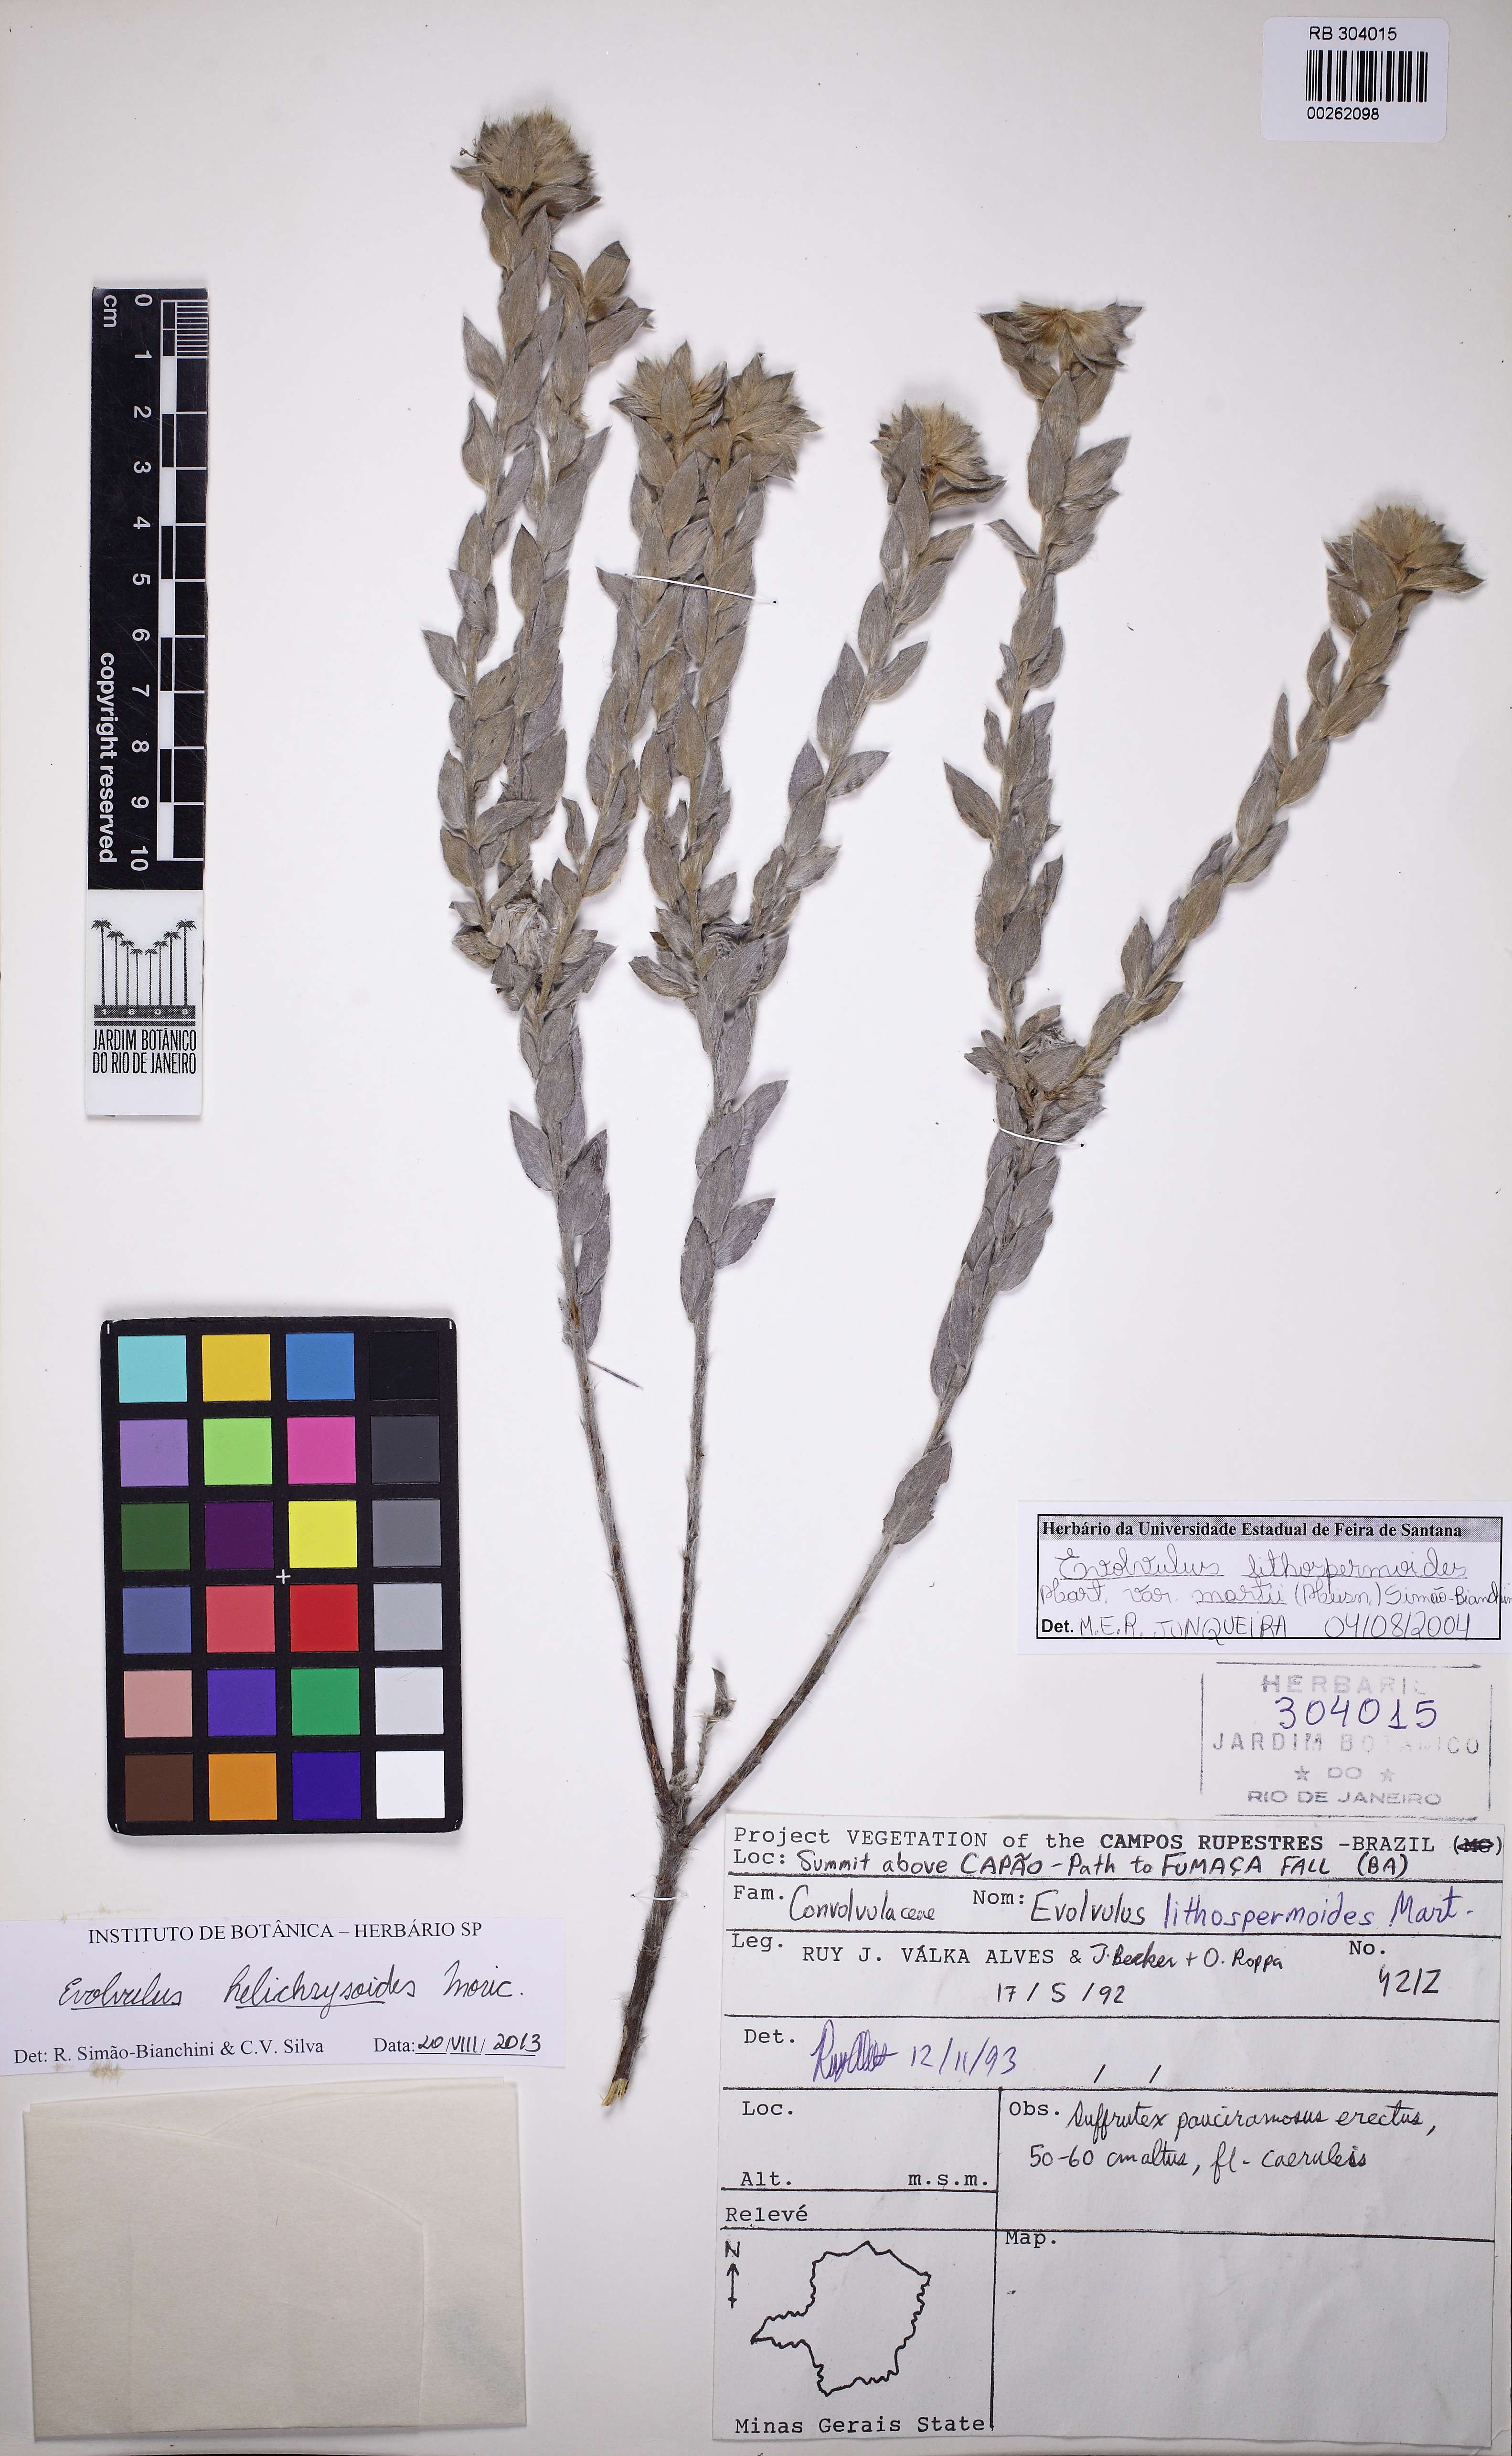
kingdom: Plantae
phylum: Tracheophyta
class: Magnoliopsida
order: Solanales
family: Convolvulaceae
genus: Evolvulus
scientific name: Evolvulus helichrysoides
